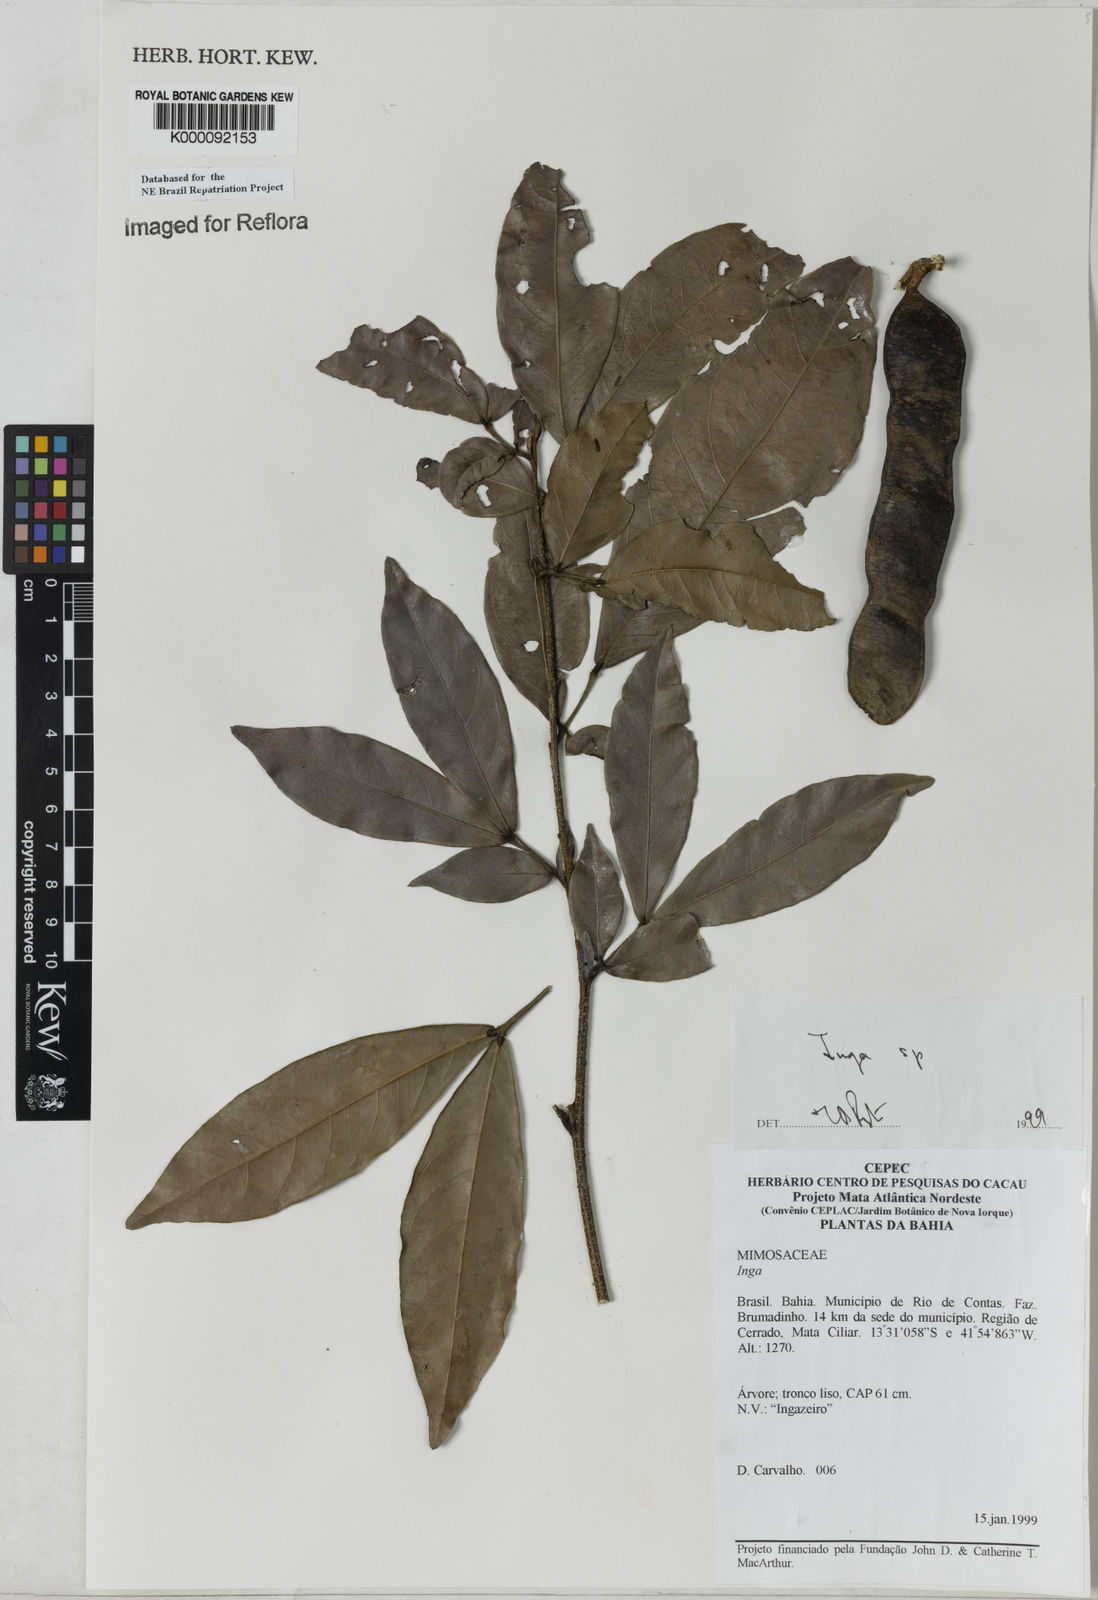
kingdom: Plantae
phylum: Tracheophyta
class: Magnoliopsida
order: Fabales
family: Fabaceae
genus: Inga
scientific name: Inga
